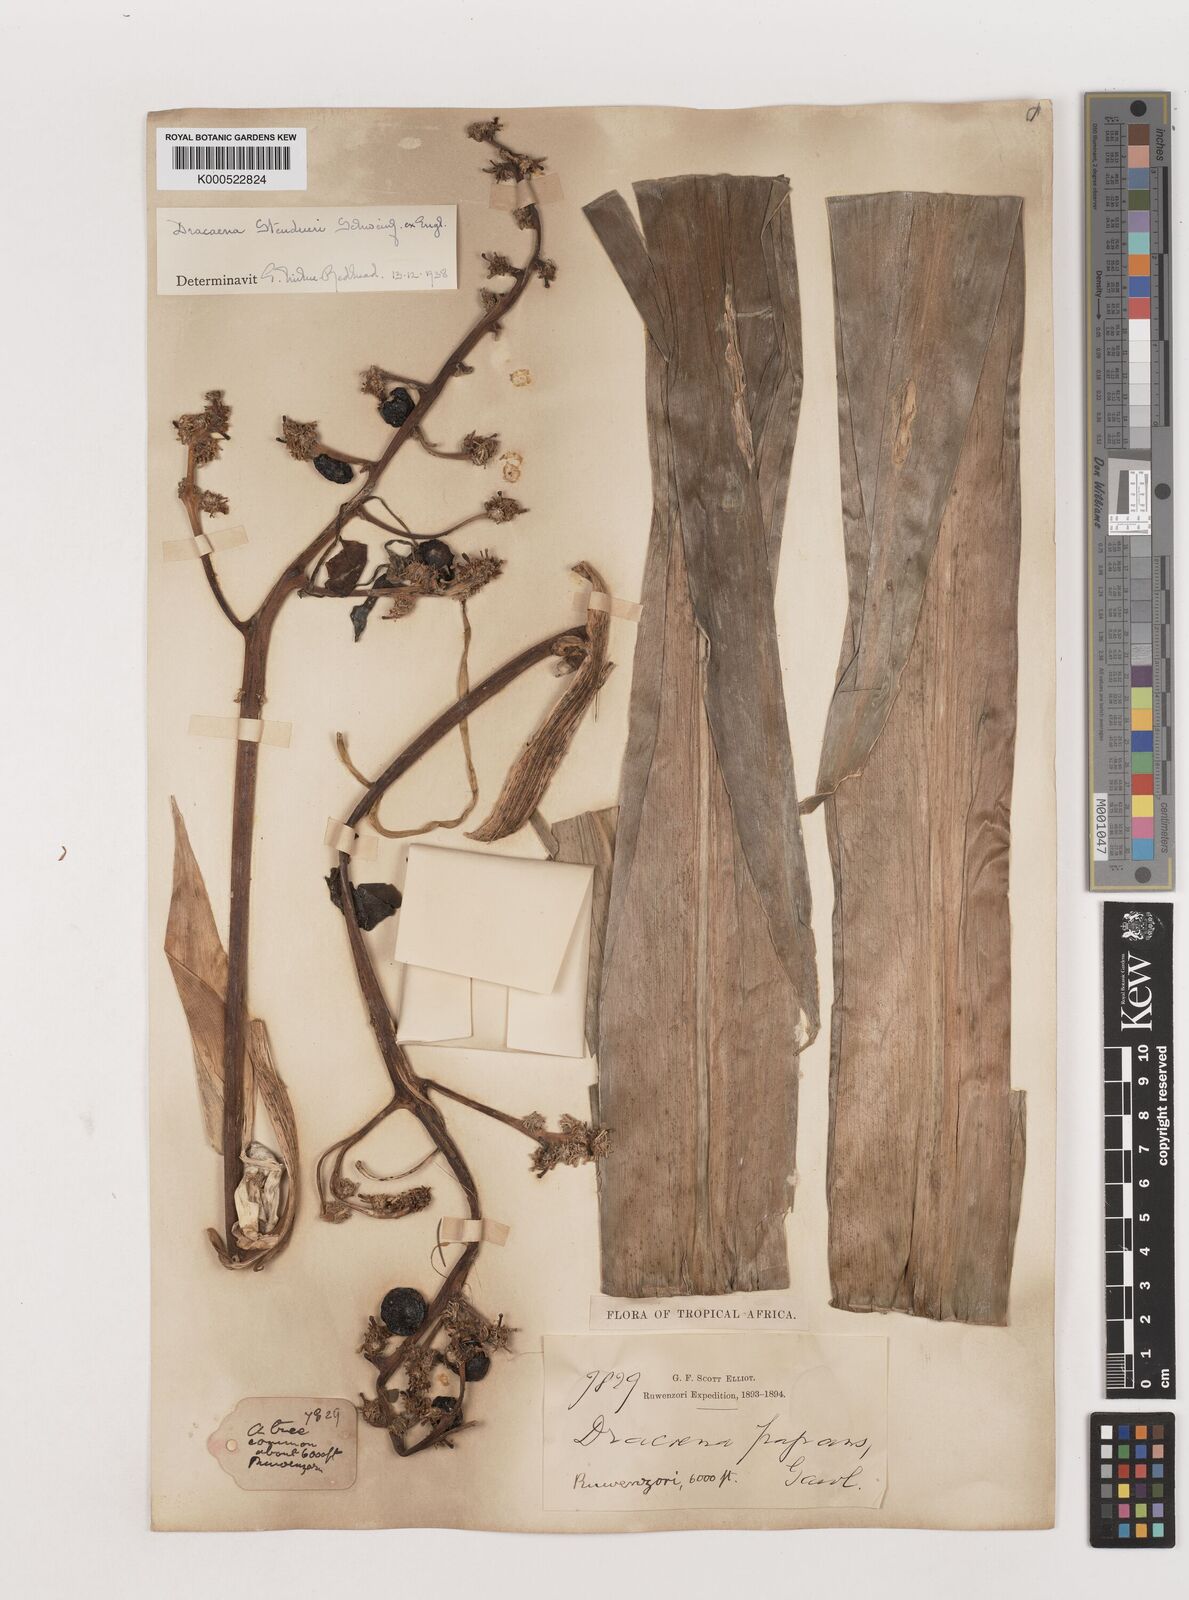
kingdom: Plantae
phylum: Tracheophyta
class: Liliopsida
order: Asparagales
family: Asparagaceae
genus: Dracaena
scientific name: Dracaena steudneri
